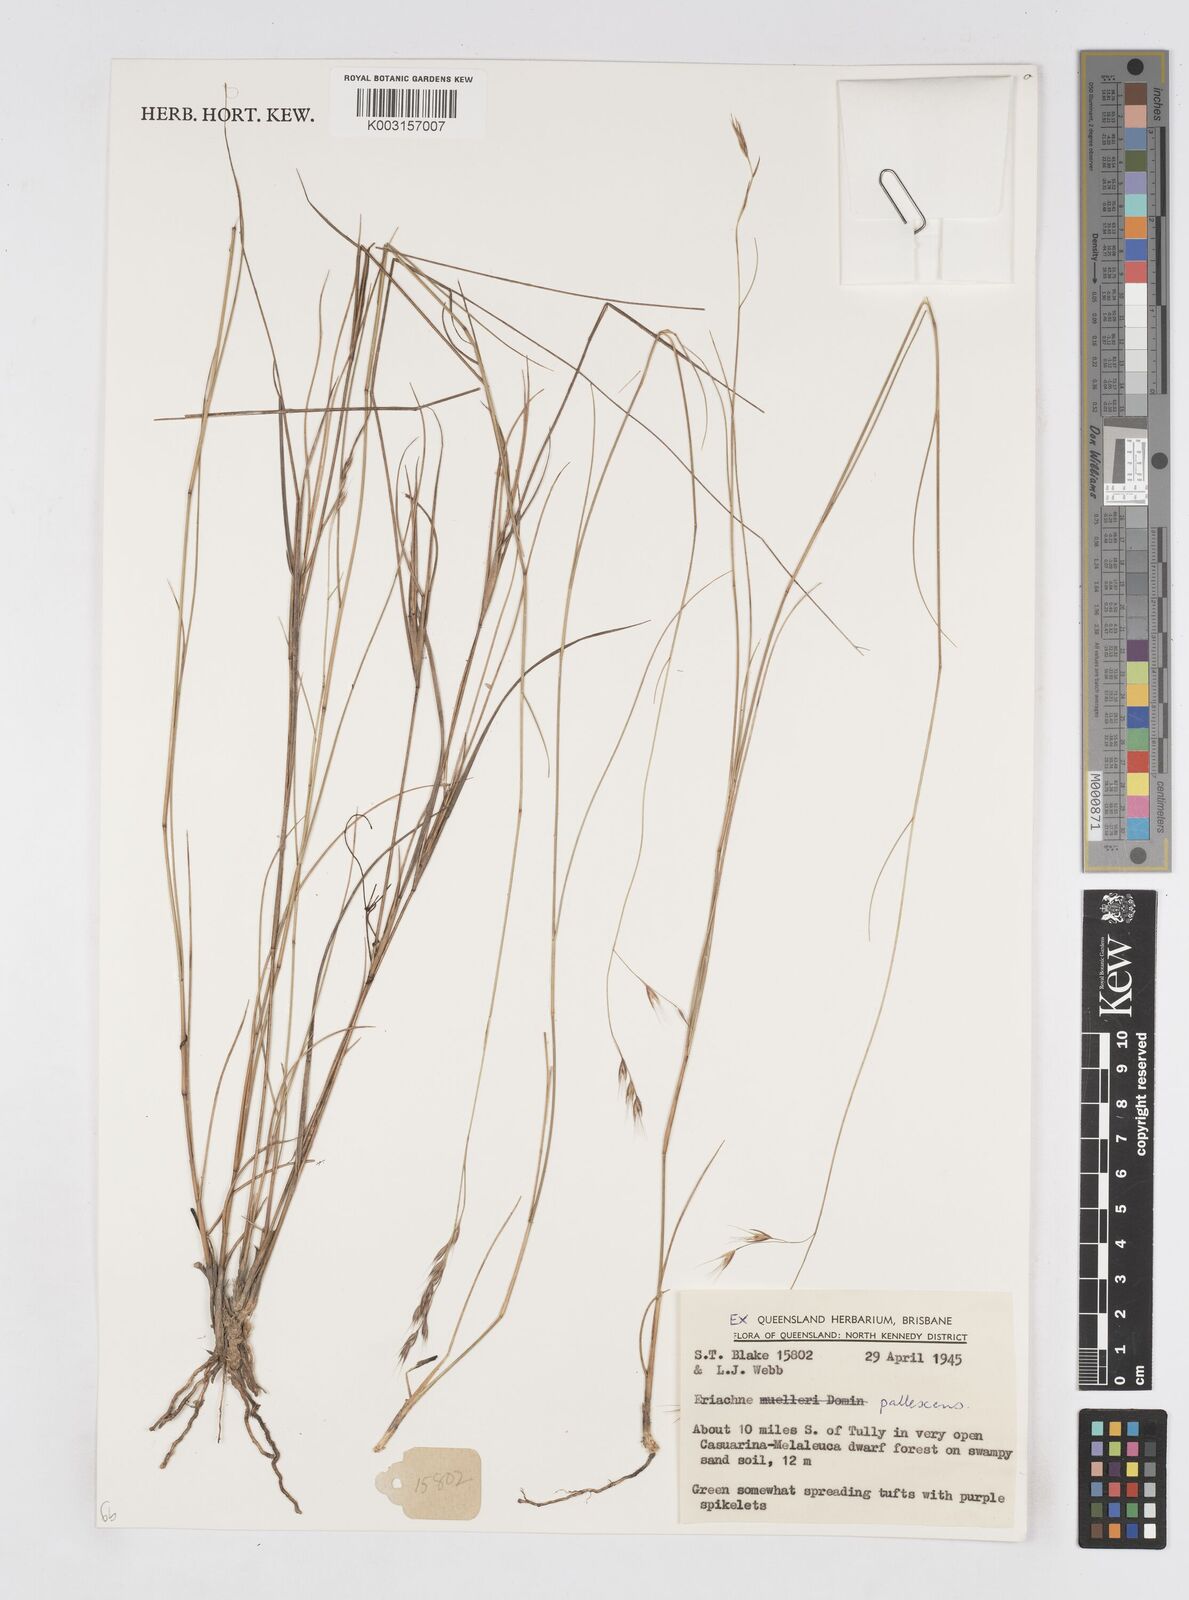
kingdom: Plantae
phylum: Tracheophyta
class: Liliopsida
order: Poales
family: Poaceae
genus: Eriachne
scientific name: Eriachne pallescens
